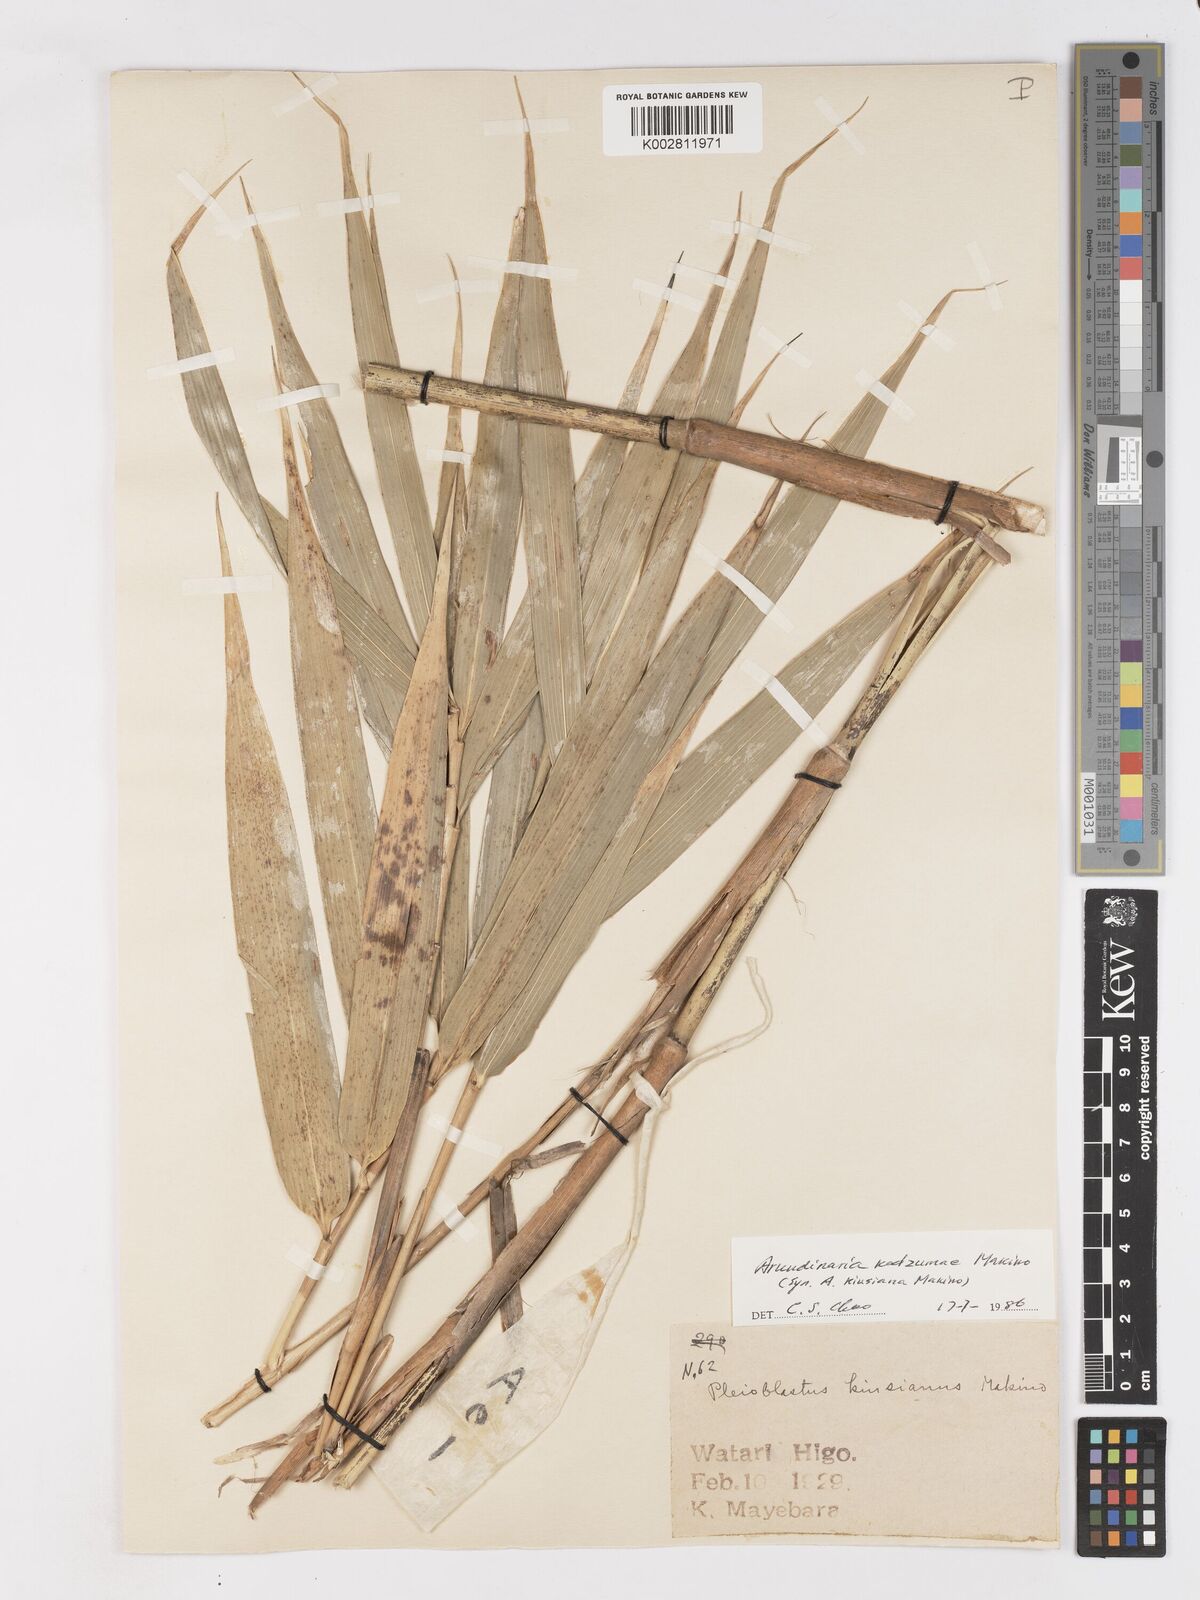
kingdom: Plantae
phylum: Tracheophyta
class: Liliopsida
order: Poales
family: Poaceae
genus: Pleioblastus
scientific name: Pleioblastus kodzumae
